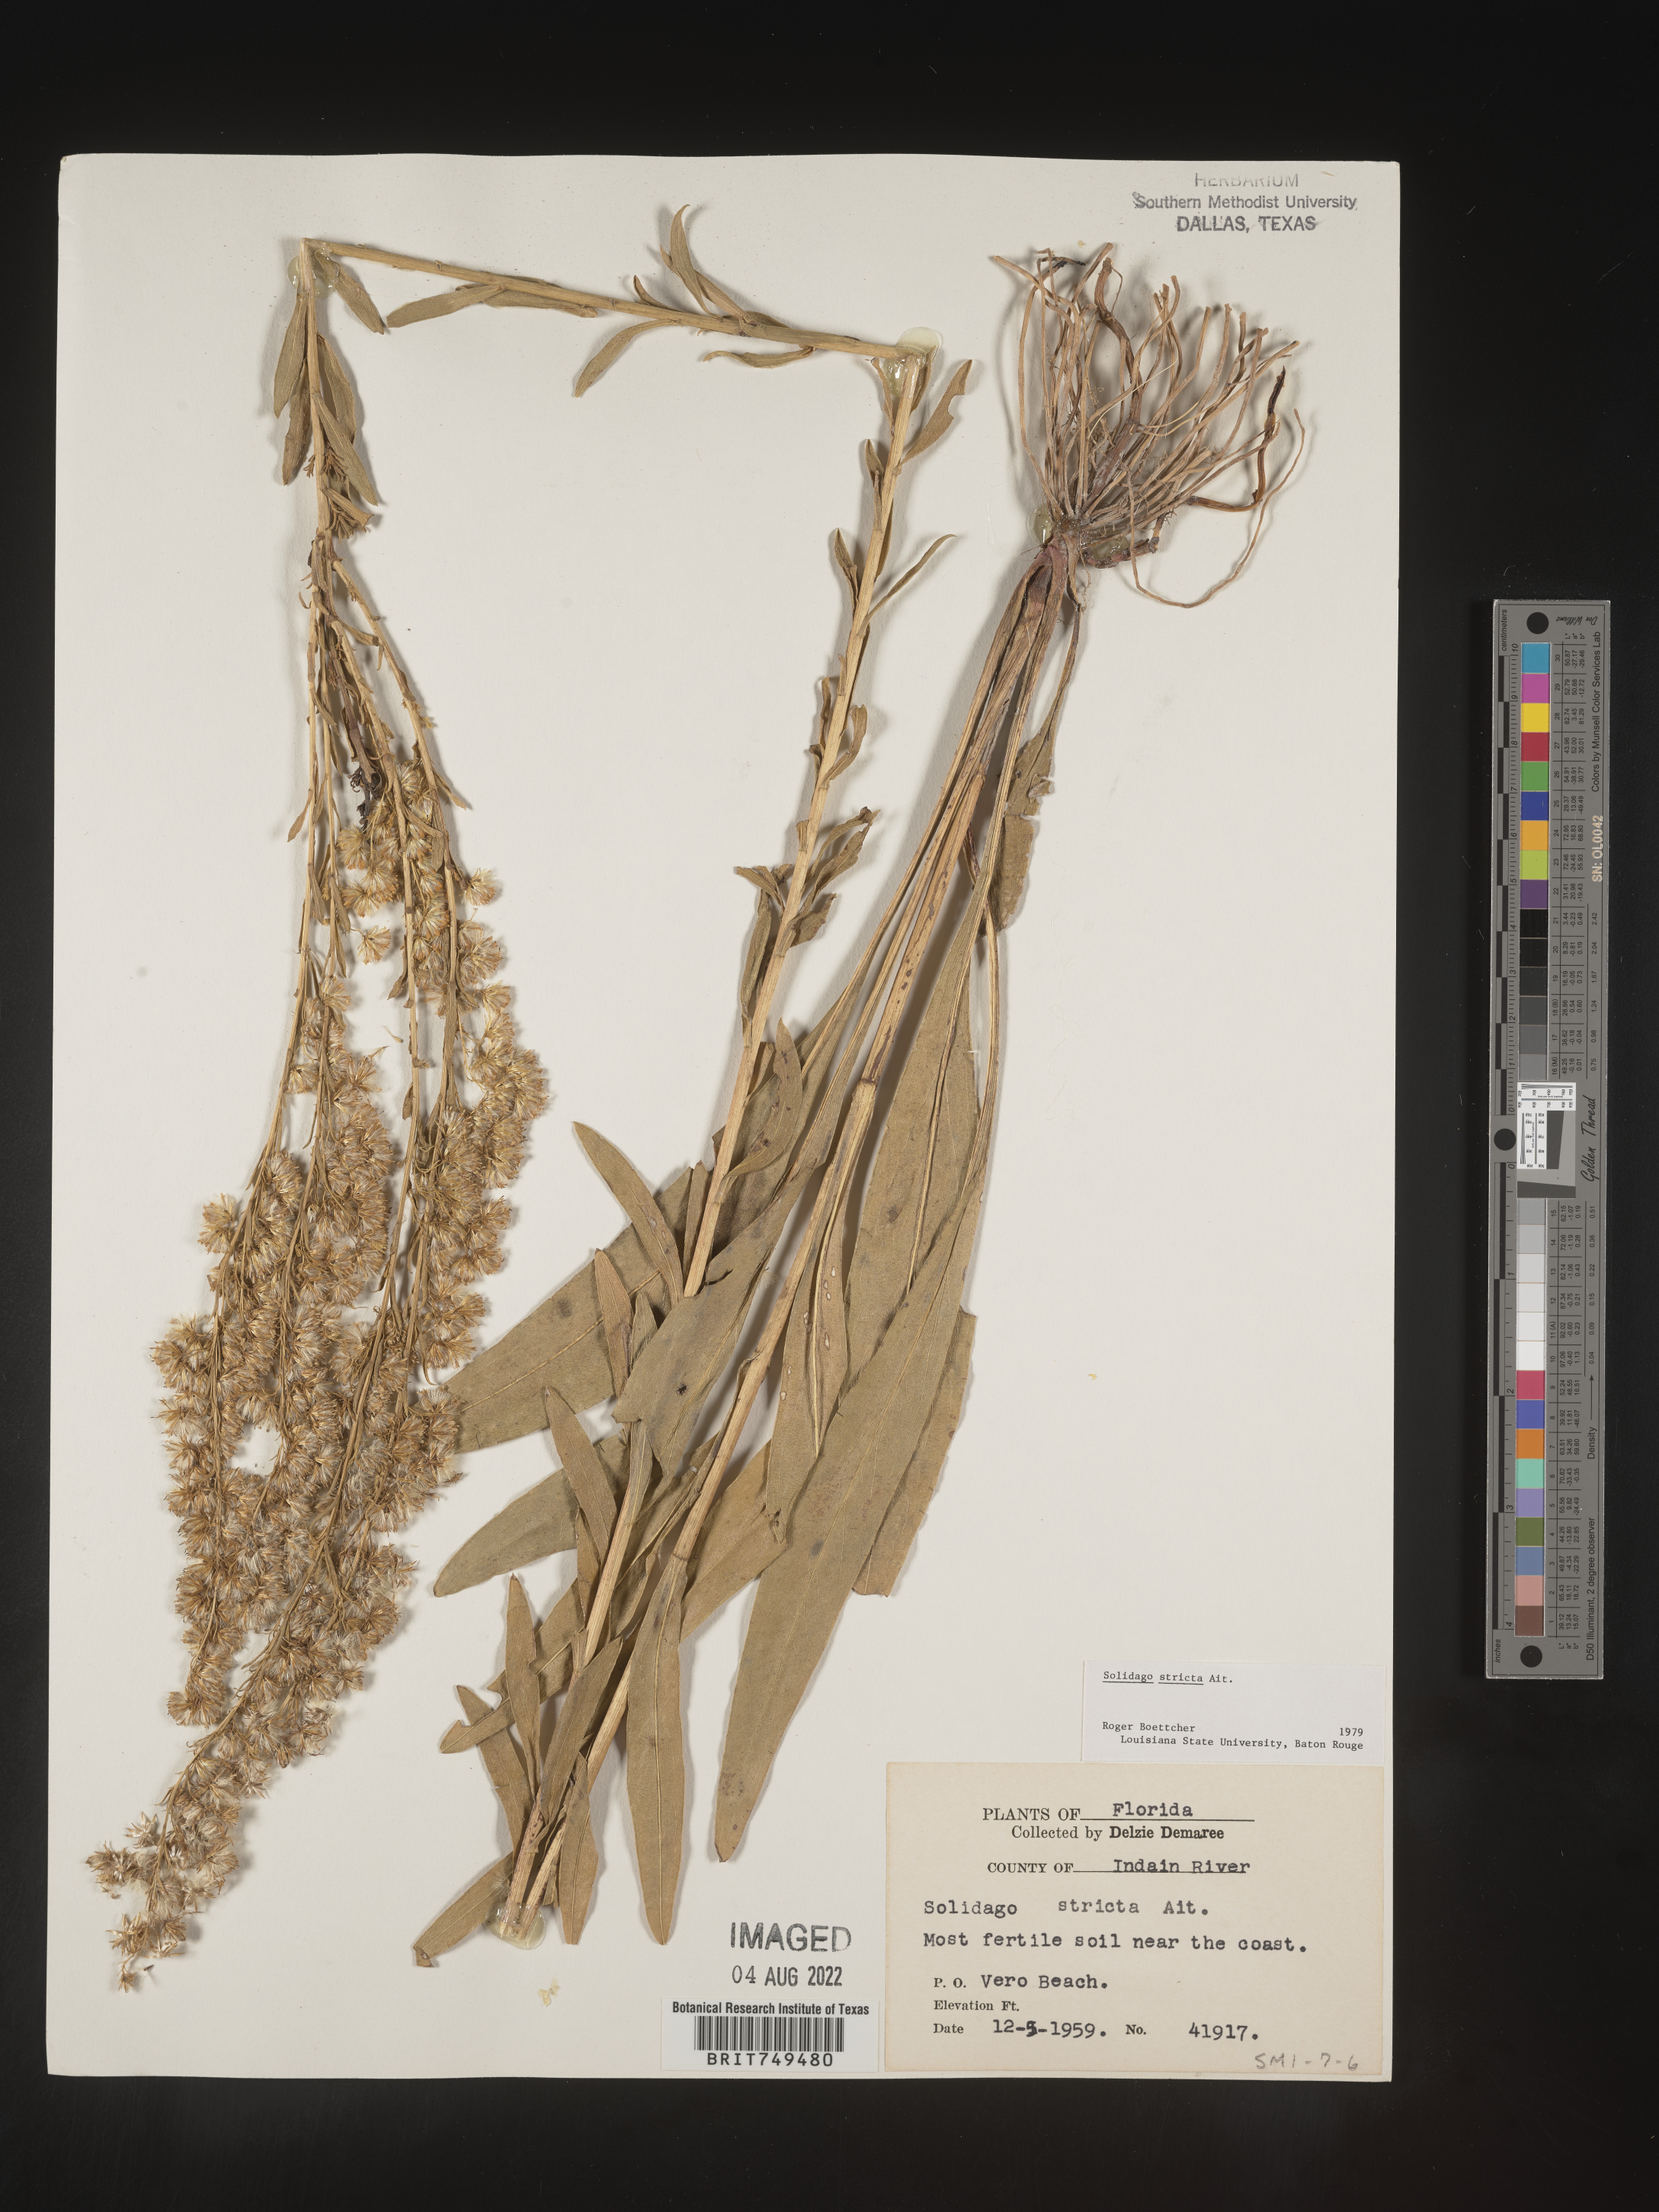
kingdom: Plantae
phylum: Tracheophyta
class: Magnoliopsida
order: Asterales
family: Asteraceae
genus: Solidago
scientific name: Solidago stricta
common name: Pine barren bog goldenrod
